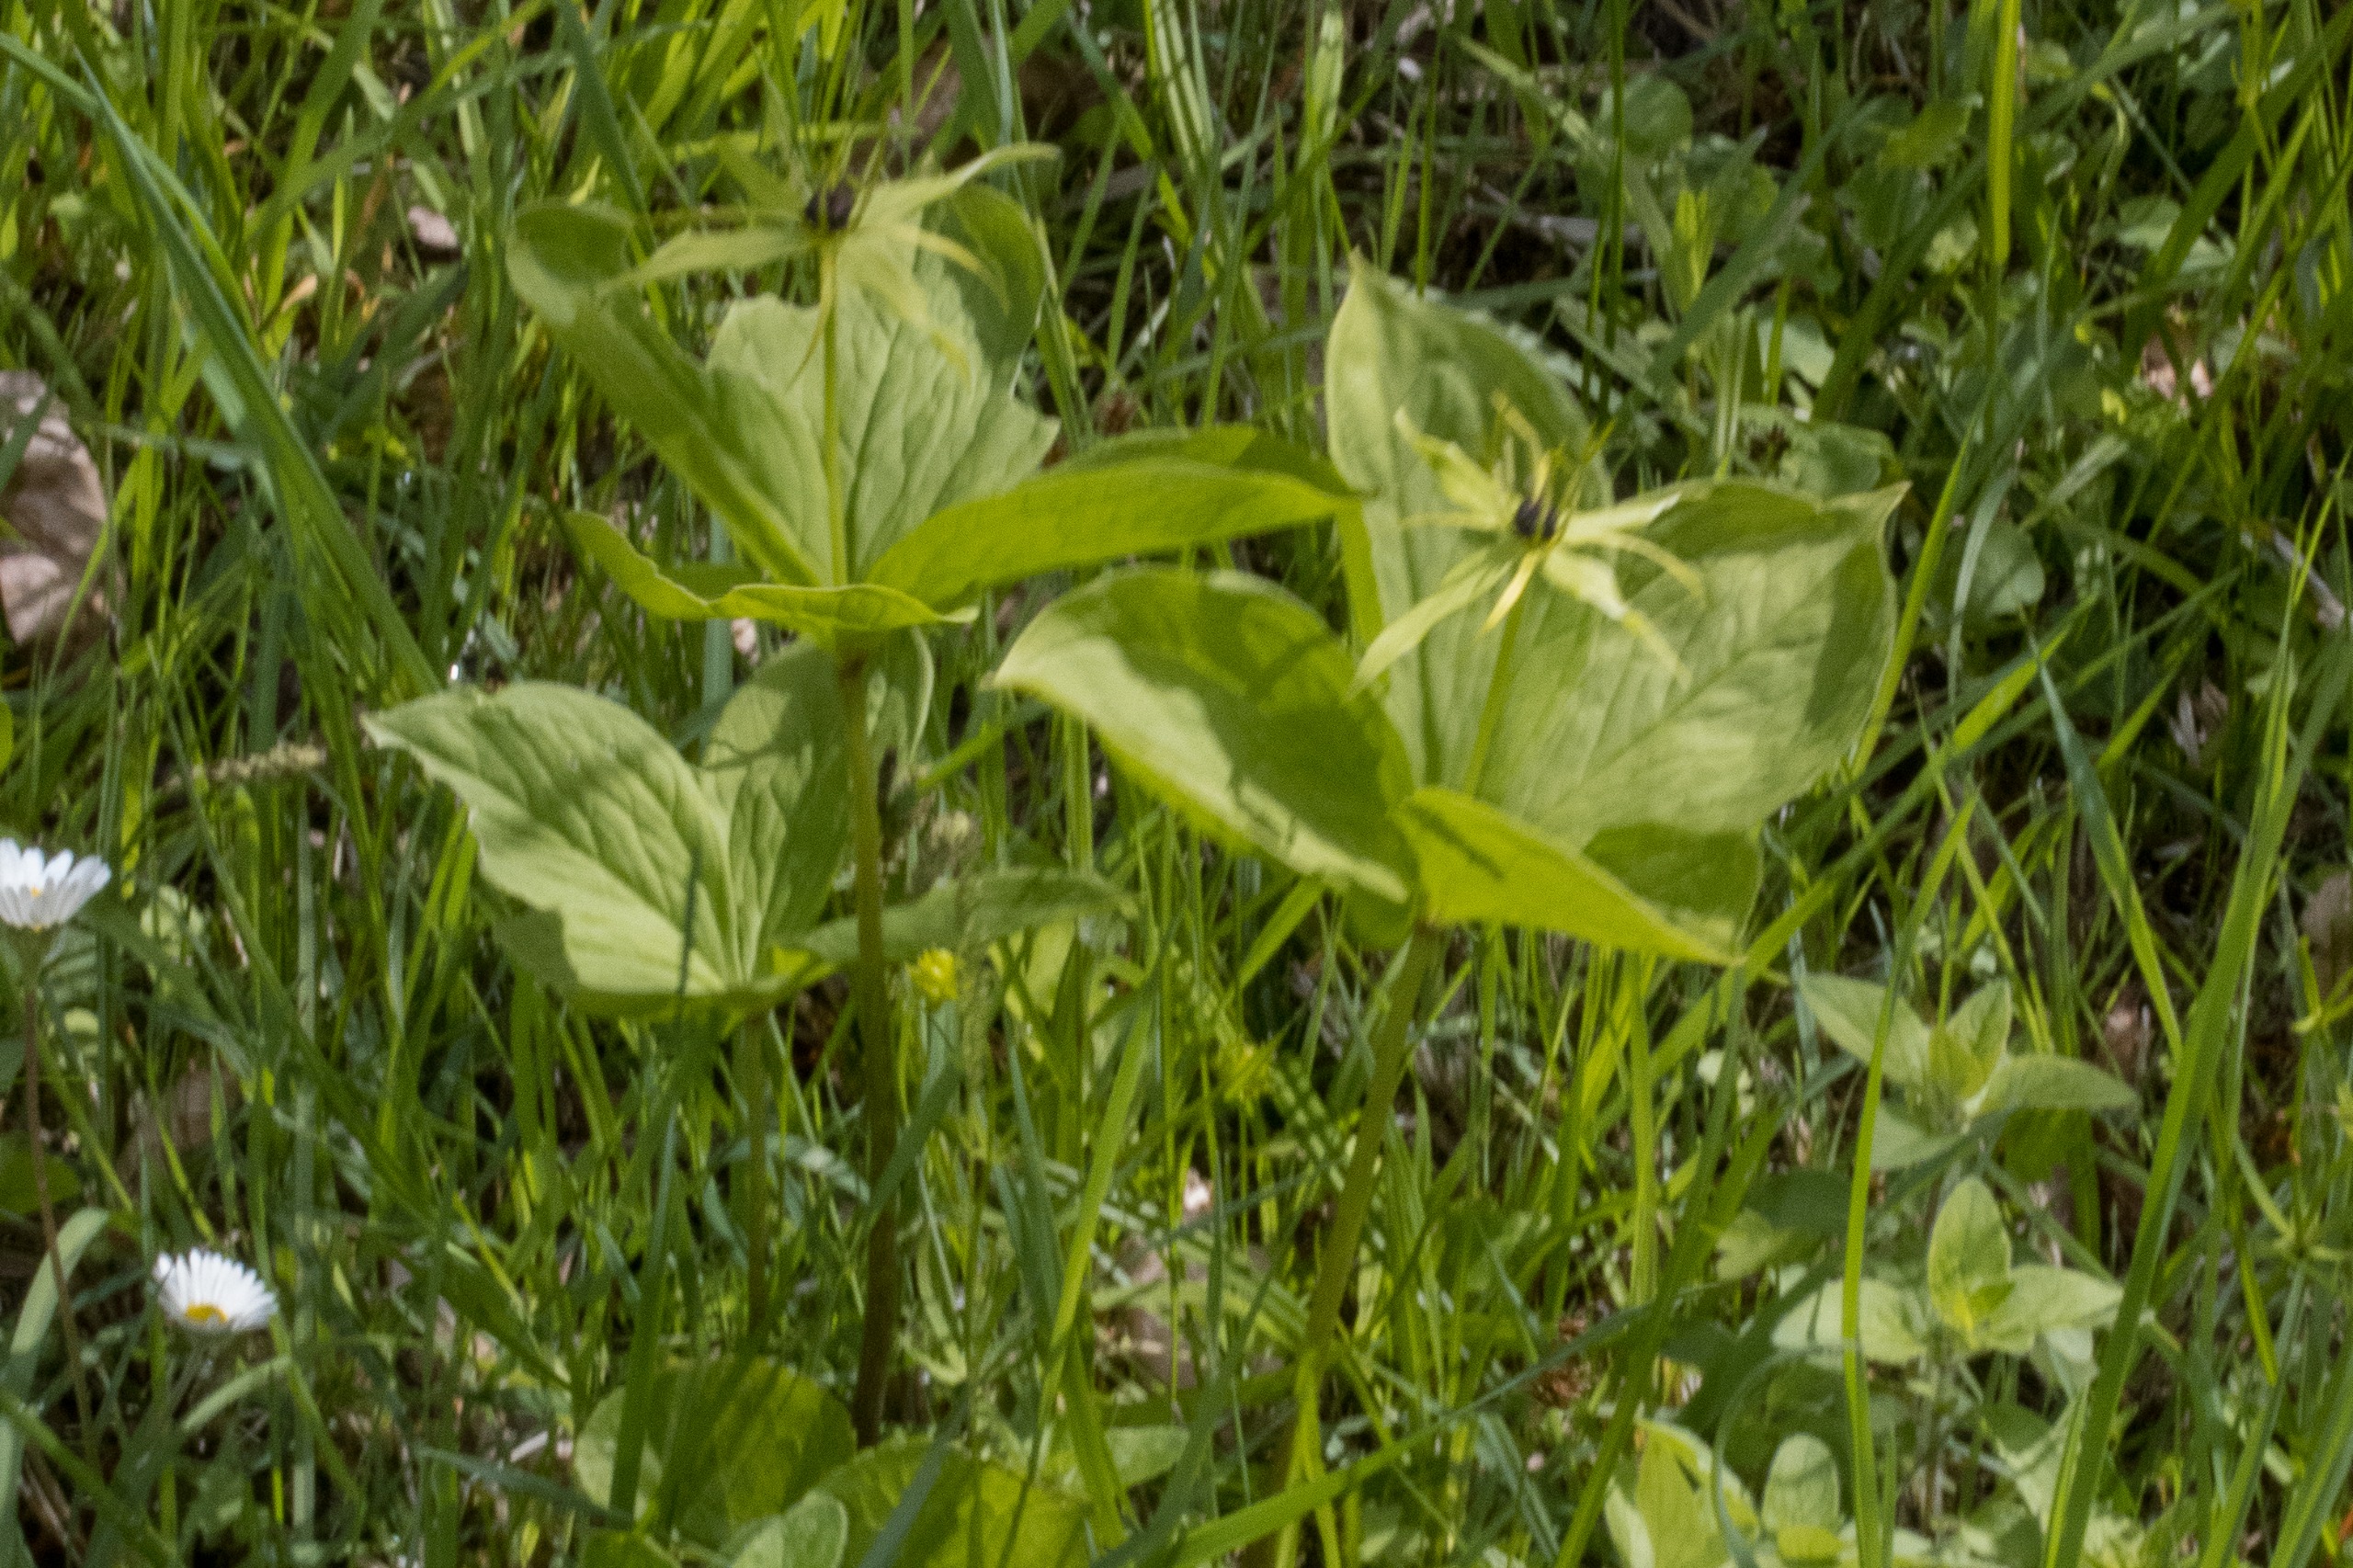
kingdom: Plantae
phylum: Tracheophyta
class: Liliopsida
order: Liliales
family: Melanthiaceae
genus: Paris
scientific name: Paris quadrifolia
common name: Firblad
